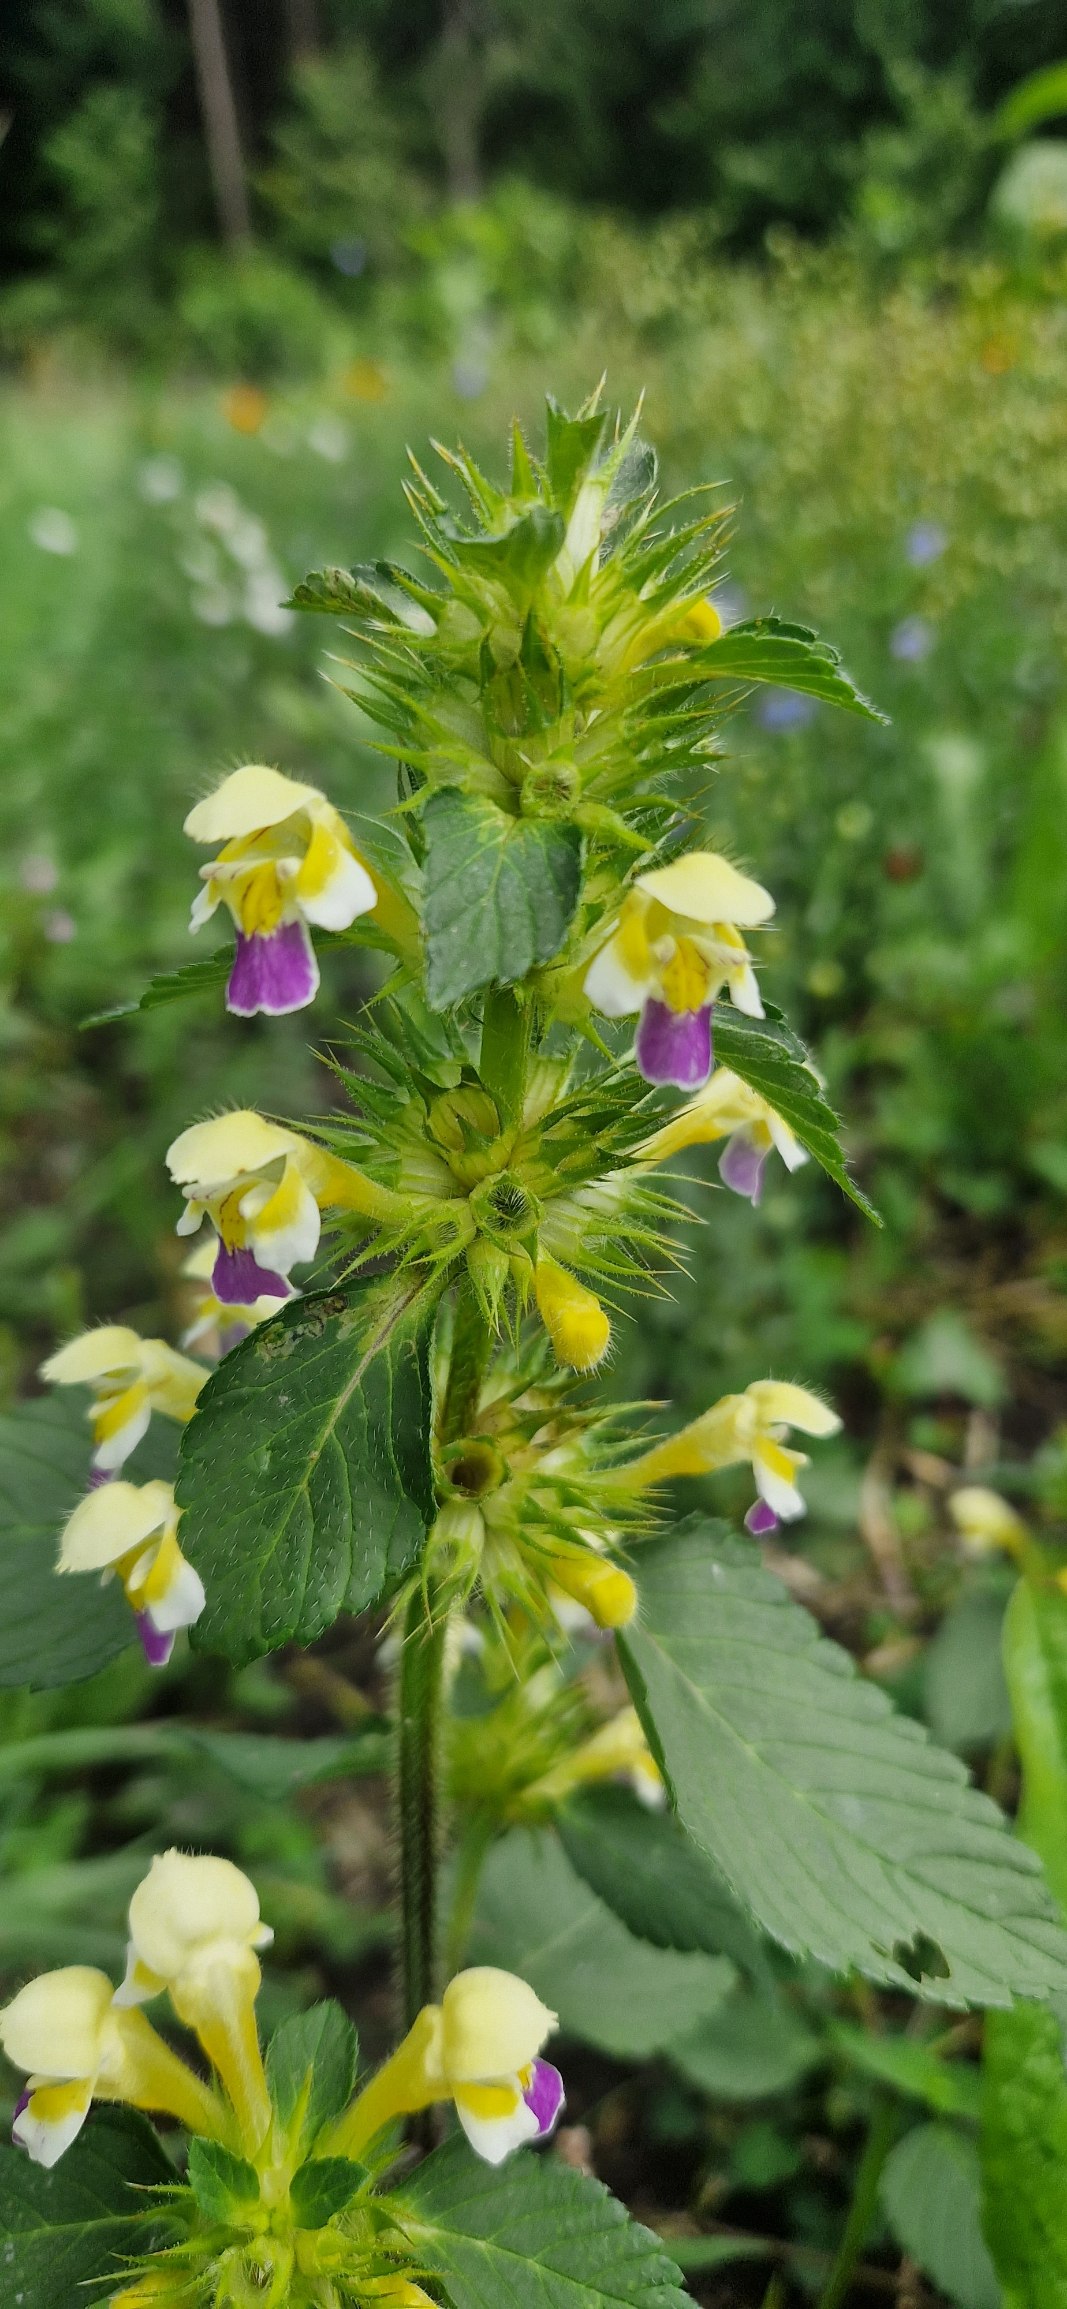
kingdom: Plantae
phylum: Tracheophyta
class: Magnoliopsida
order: Lamiales
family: Lamiaceae
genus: Galeopsis
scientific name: Galeopsis speciosa
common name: Hamp-hanekro
